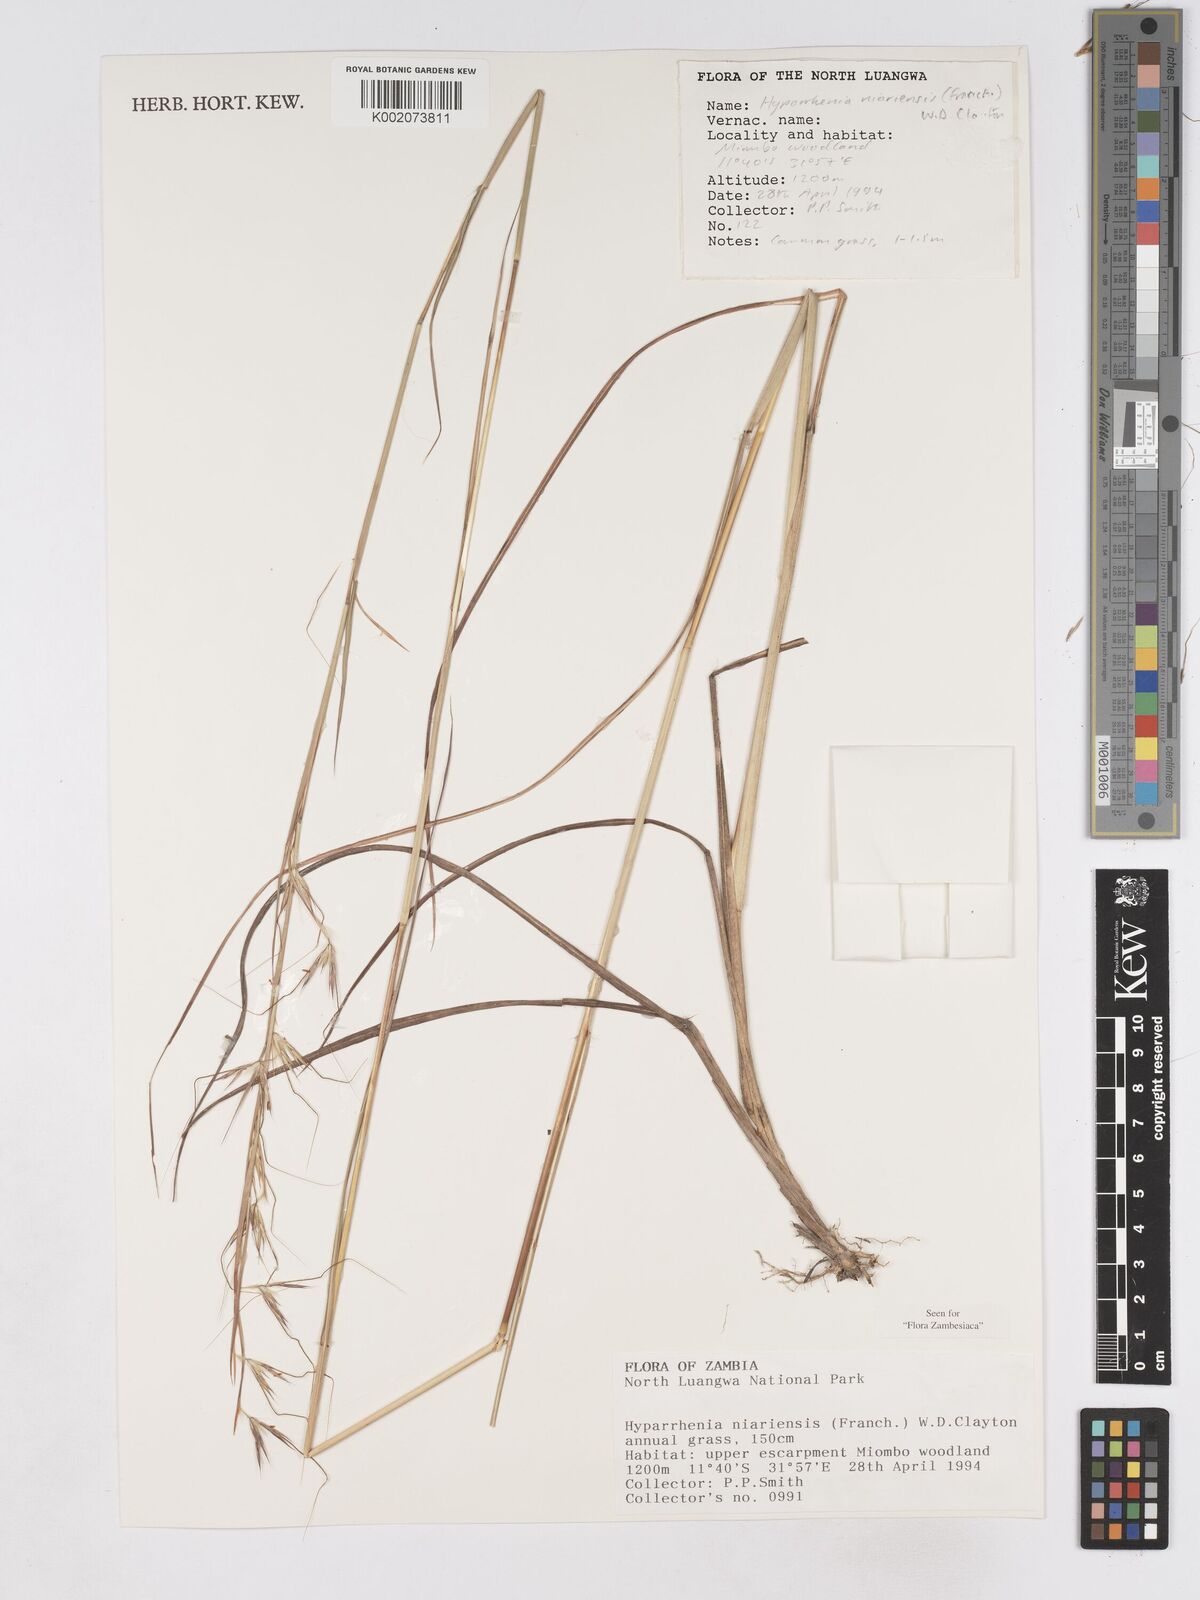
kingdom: Plantae
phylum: Tracheophyta
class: Liliopsida
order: Poales
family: Poaceae
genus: Hyparrhenia
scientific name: Hyparrhenia niariensis
